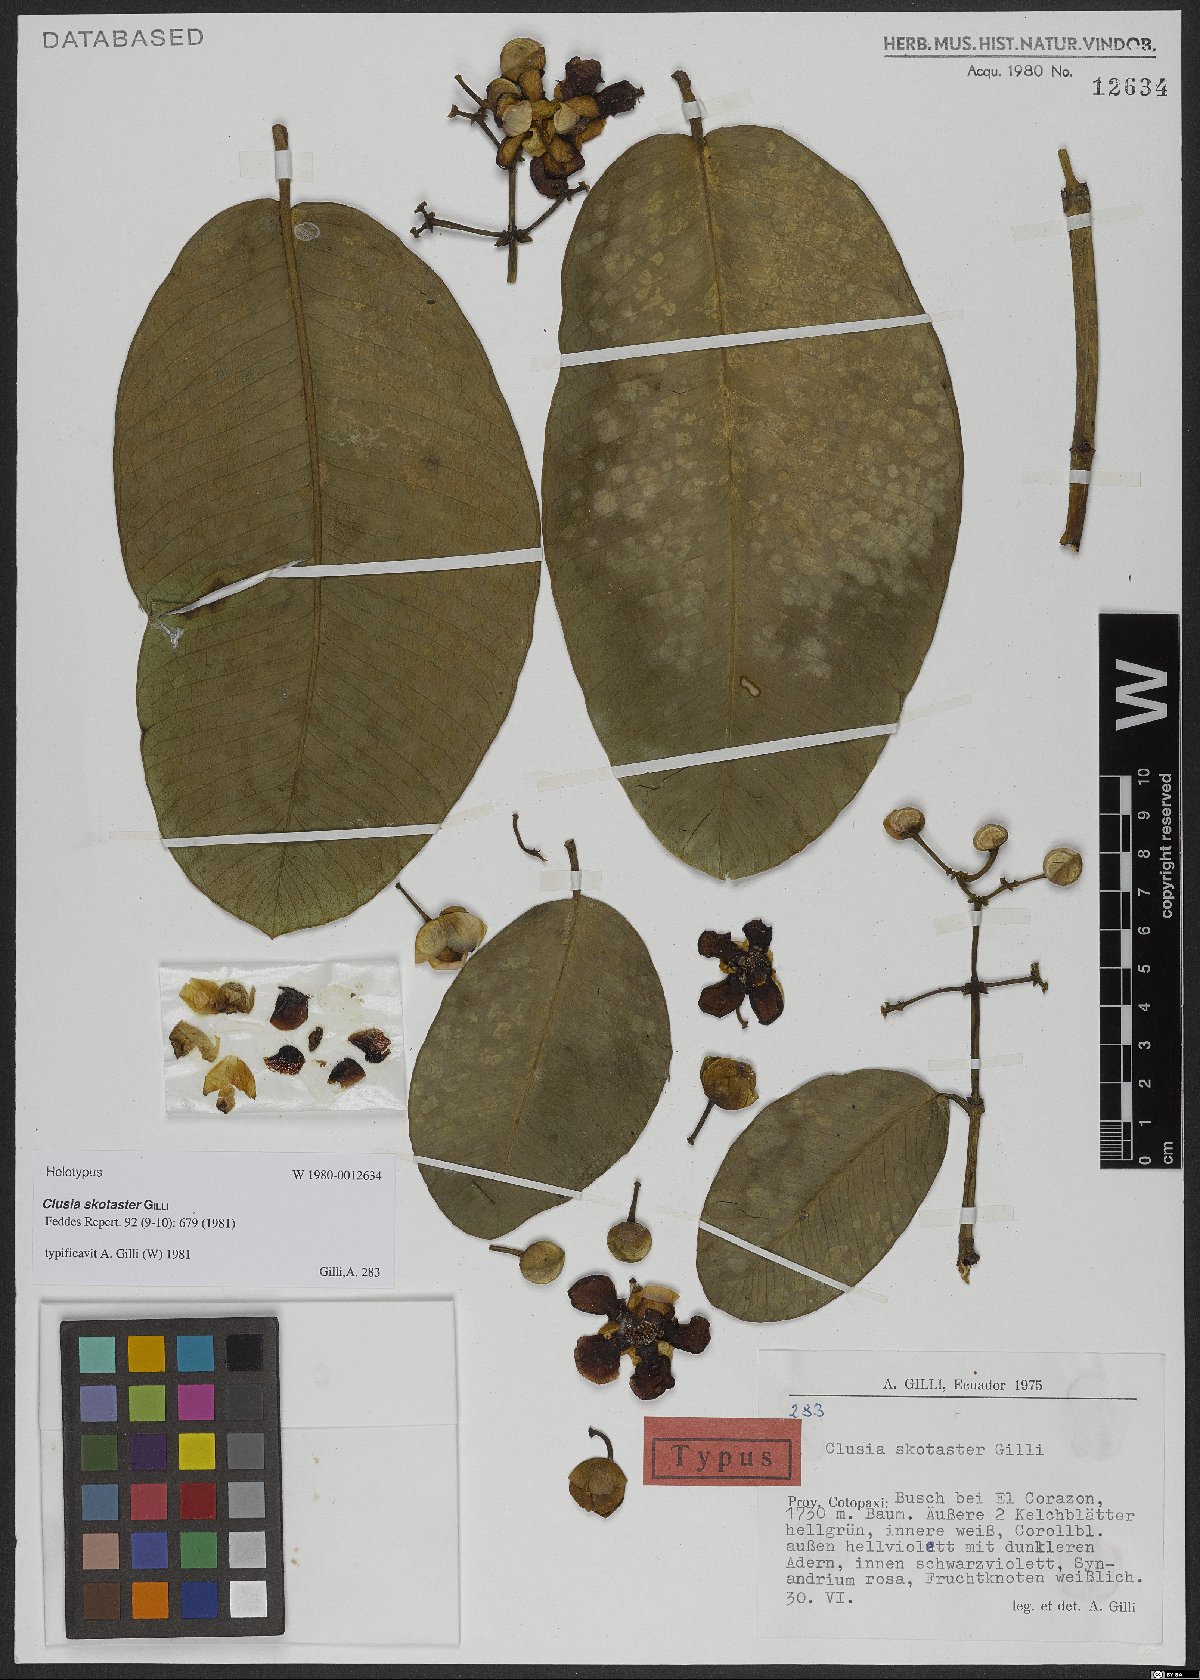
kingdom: Plantae
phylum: Tracheophyta
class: Magnoliopsida
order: Malpighiales
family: Clusiaceae
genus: Clusia
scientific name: Clusia skotaster
